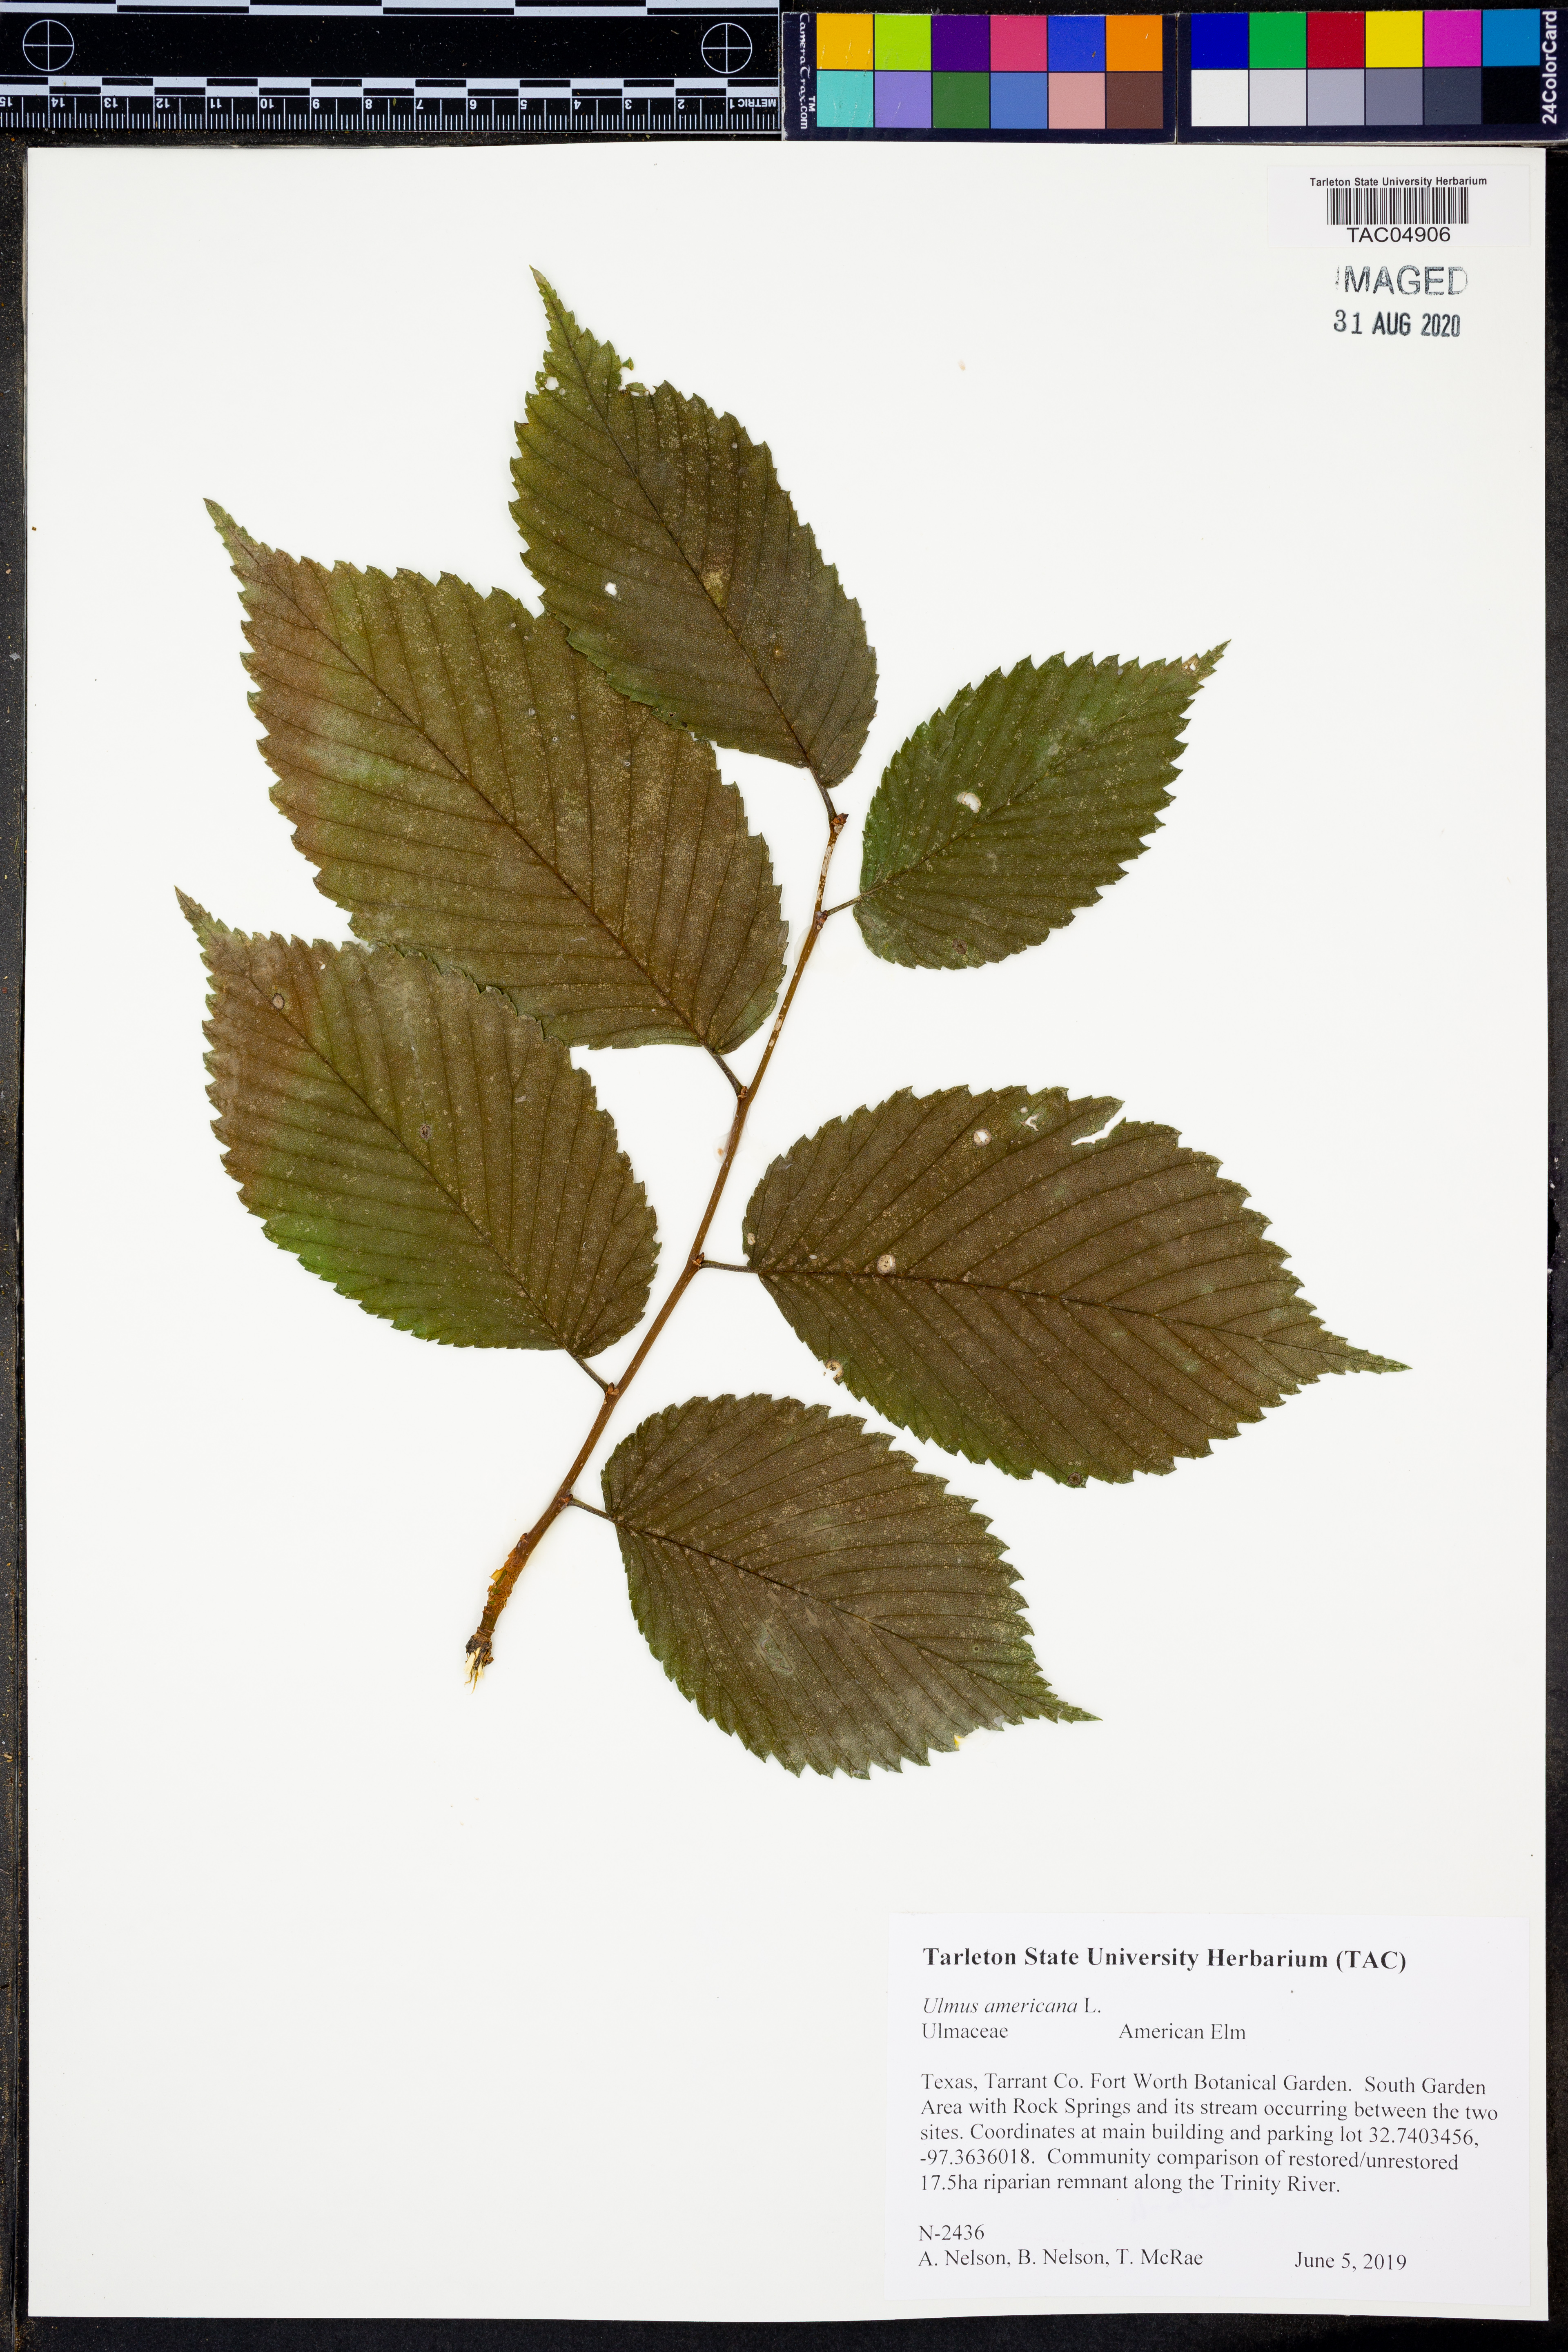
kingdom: Plantae
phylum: Tracheophyta
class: Magnoliopsida
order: Rosales
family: Ulmaceae
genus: Ulmus
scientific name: Ulmus americana
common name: American elm
